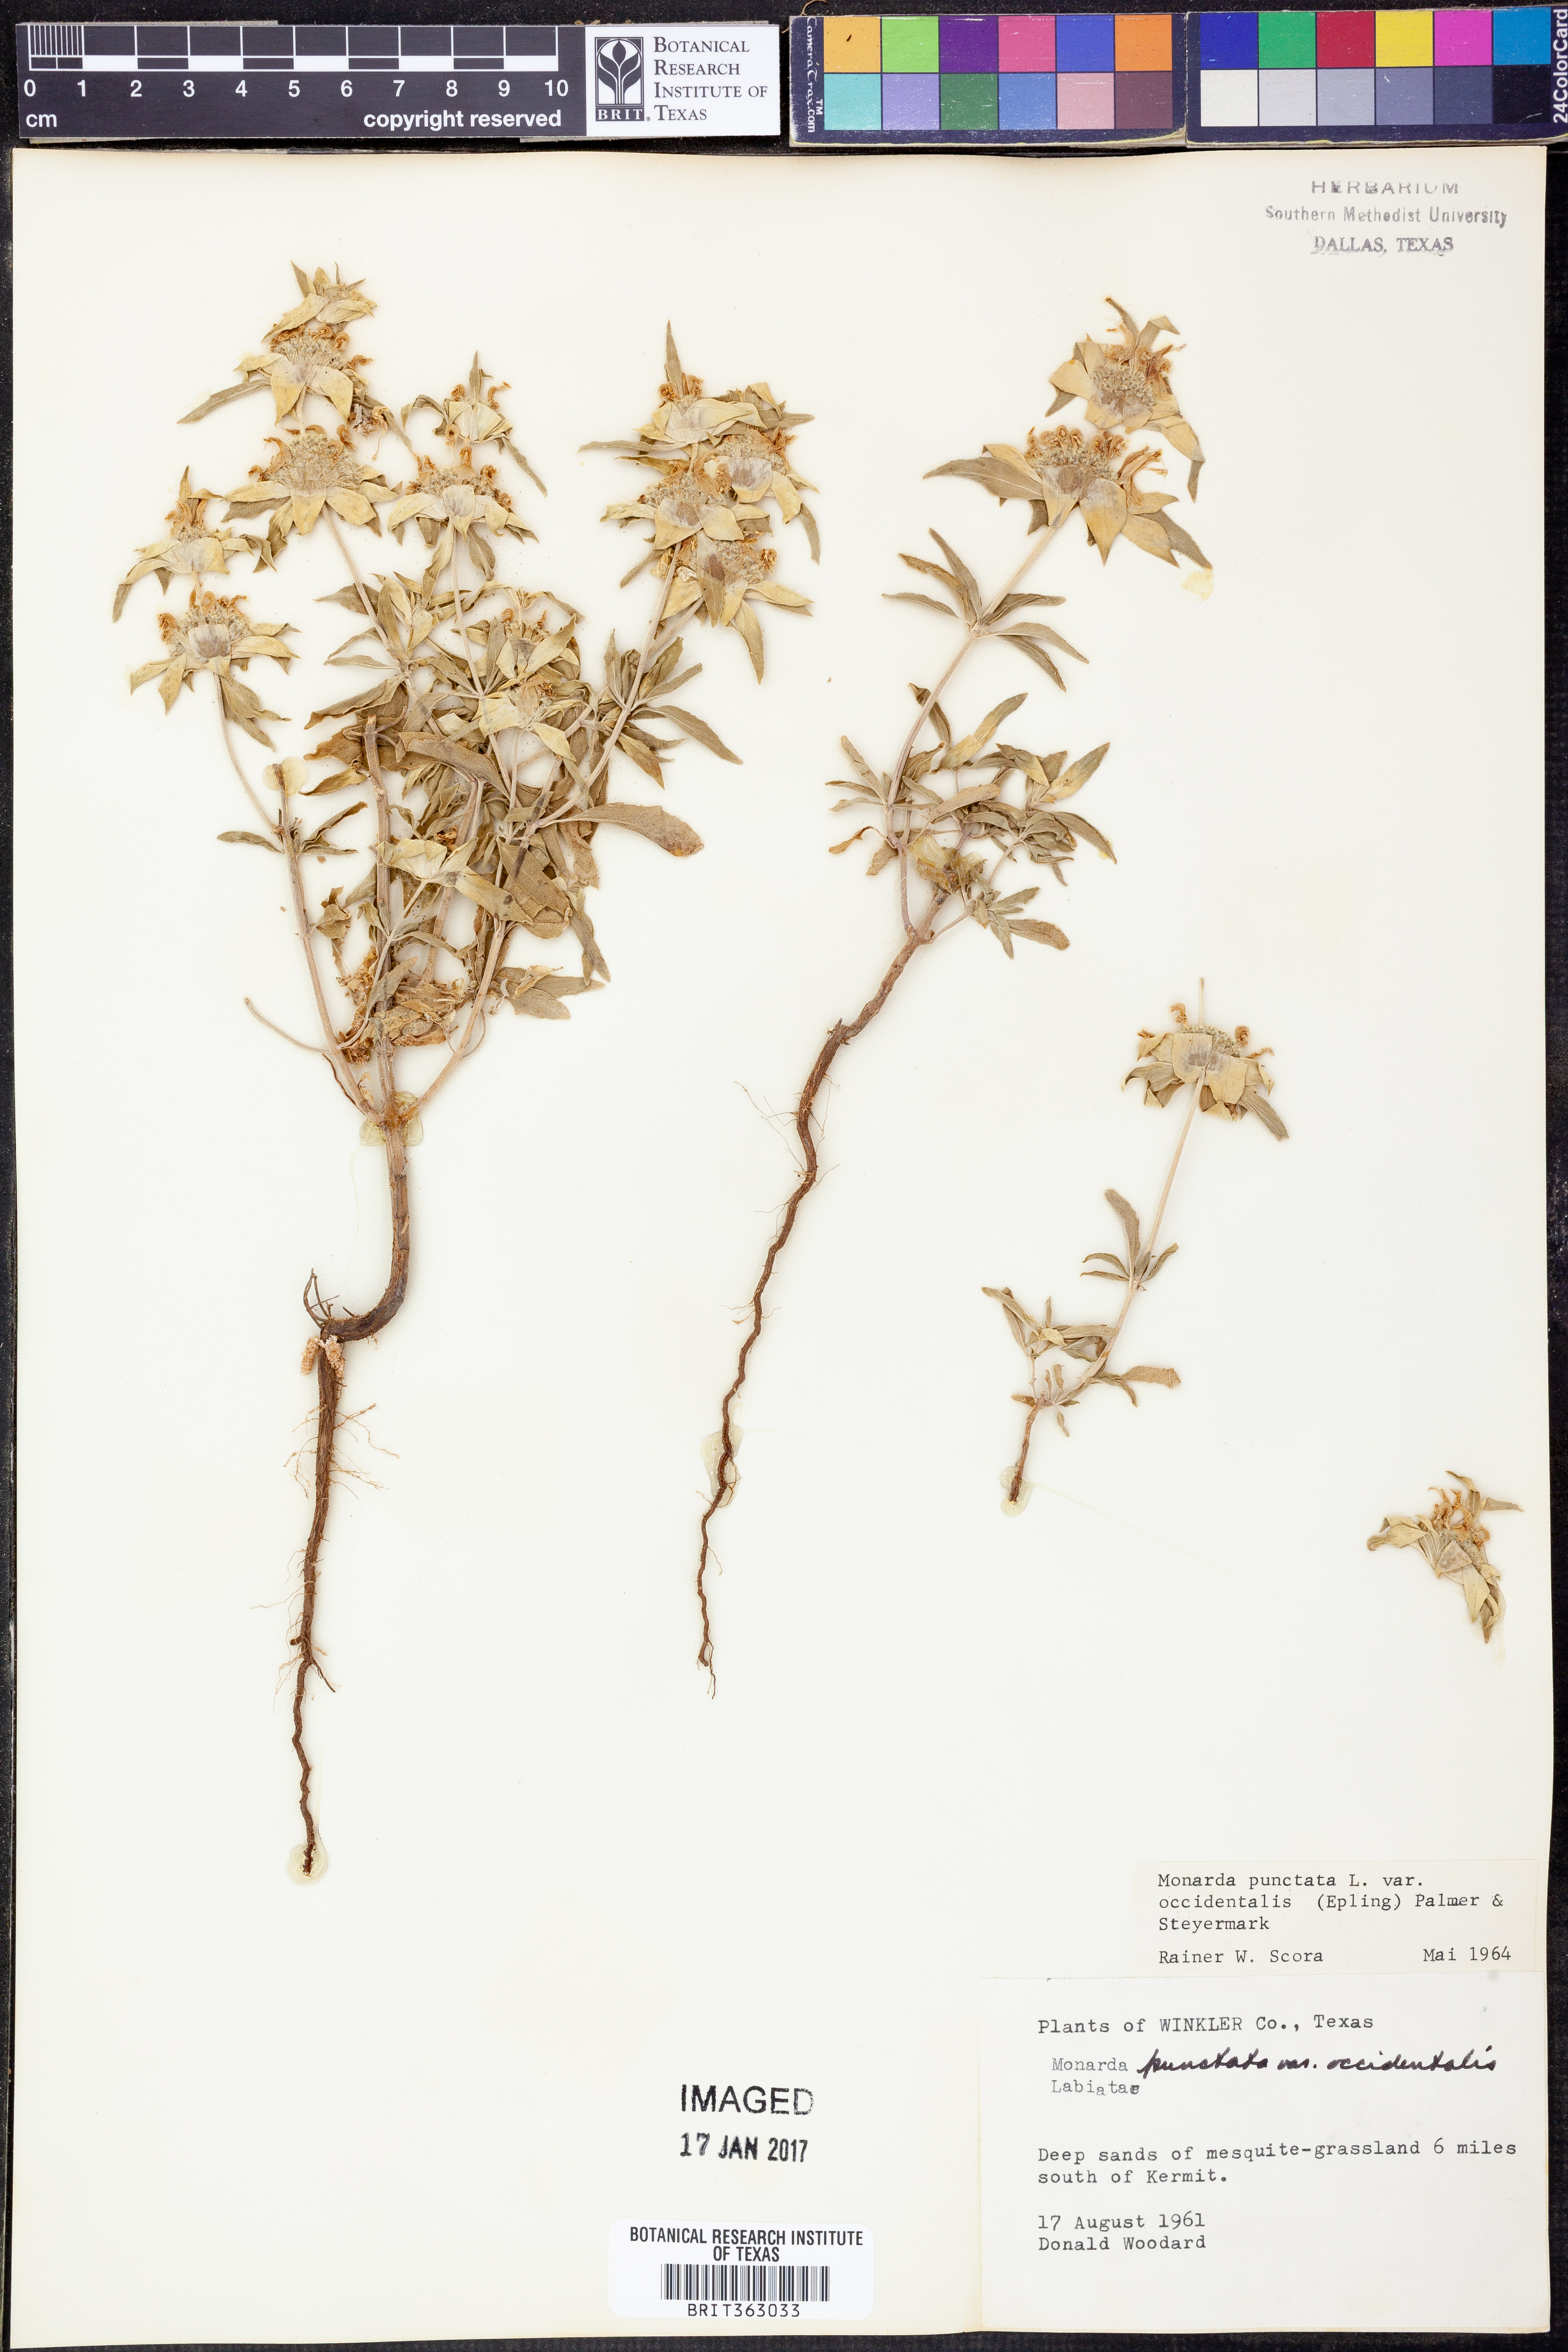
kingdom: Plantae
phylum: Tracheophyta
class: Magnoliopsida
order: Lamiales
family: Lamiaceae
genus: Monarda
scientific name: Monarda punctata
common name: Dotted monarda
